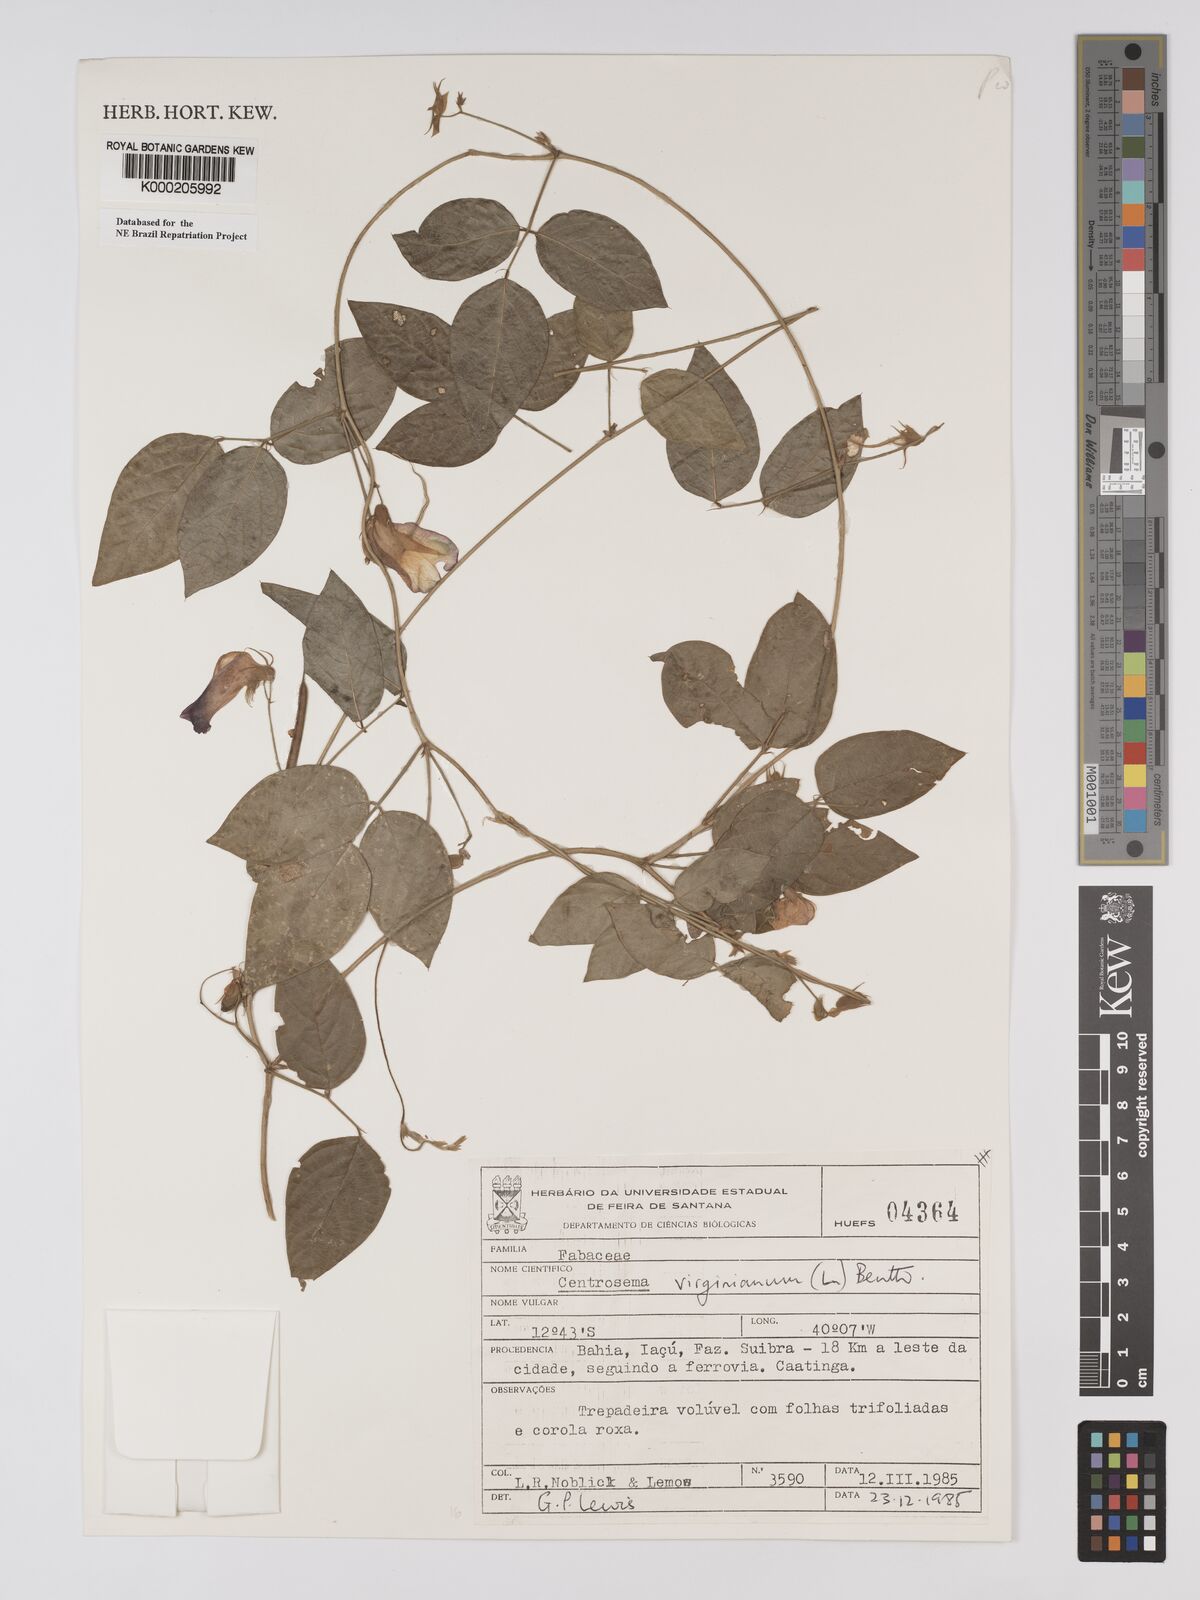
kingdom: Plantae
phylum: Tracheophyta
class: Magnoliopsida
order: Fabales
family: Fabaceae
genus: Centrosema
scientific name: Centrosema virginianum
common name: Butterfly-pea
